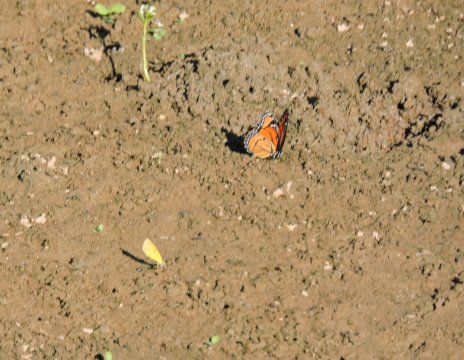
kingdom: Animalia
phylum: Arthropoda
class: Insecta
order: Lepidoptera
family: Nymphalidae
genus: Limenitis
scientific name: Limenitis archippus
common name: Viceroy
